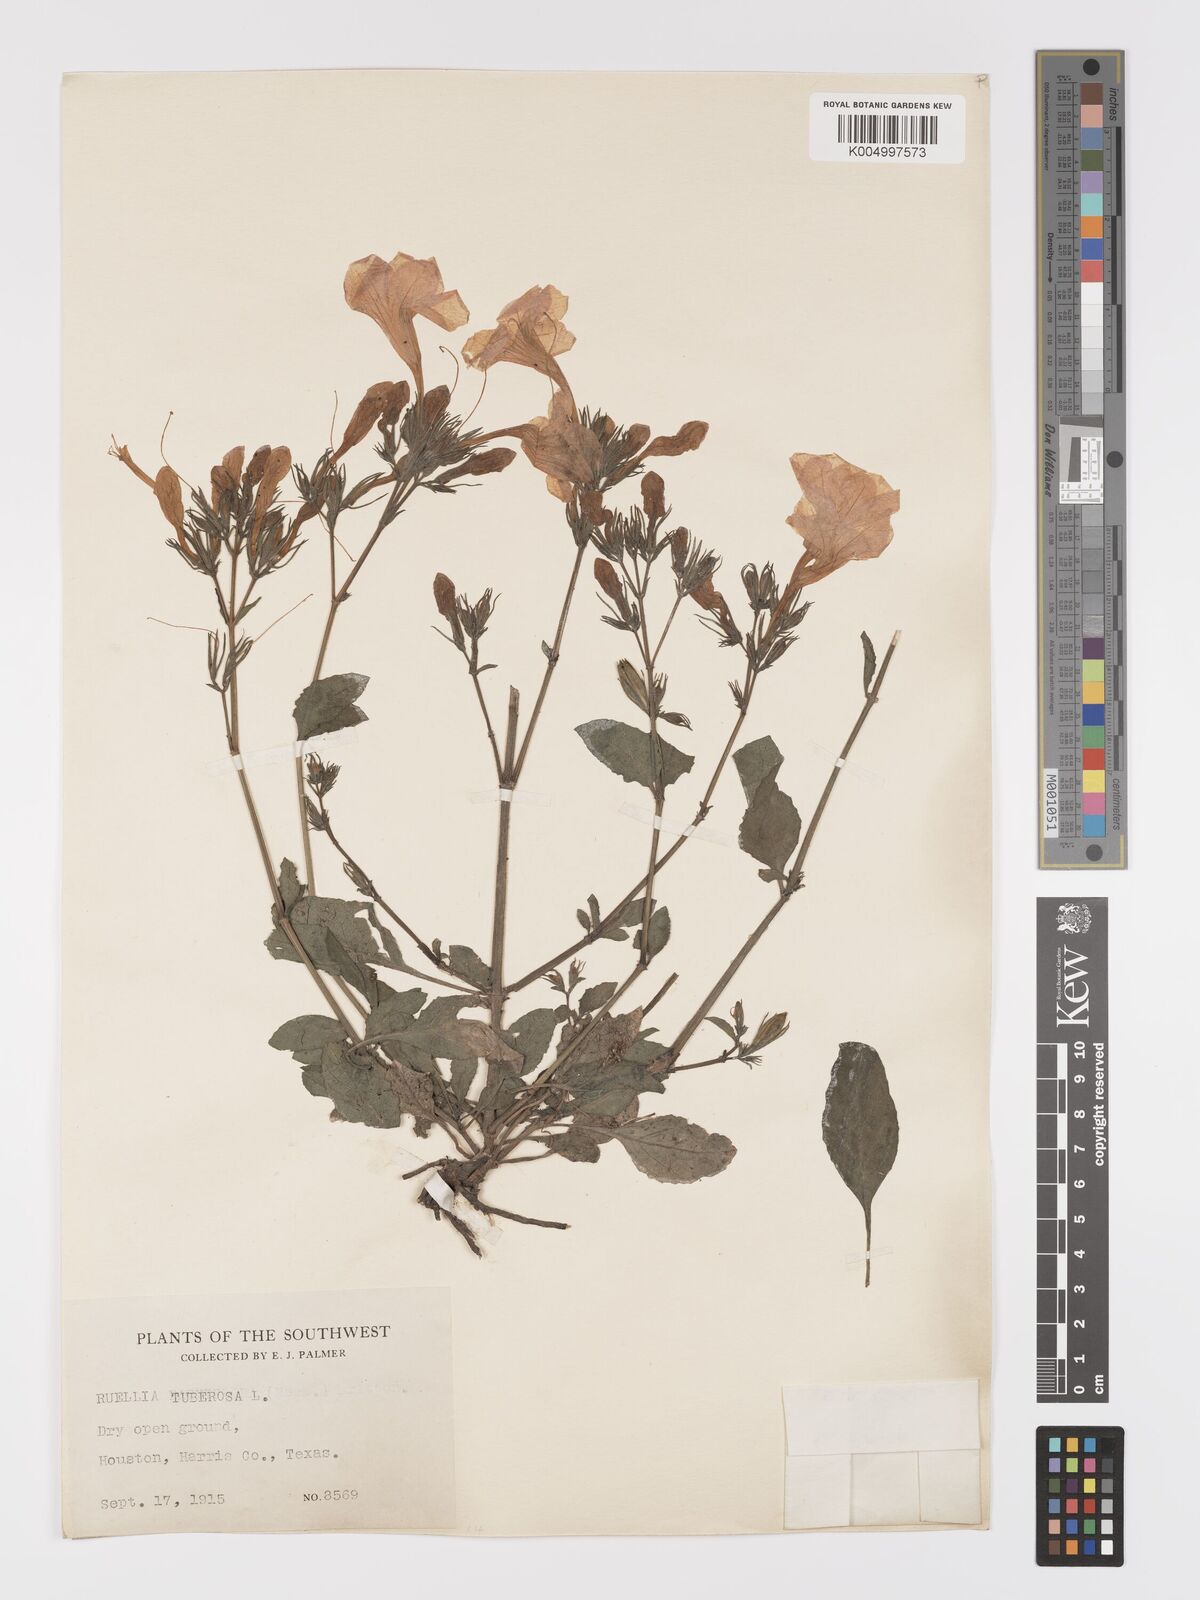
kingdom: Plantae
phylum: Tracheophyta
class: Magnoliopsida
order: Lamiales
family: Acanthaceae
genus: Ruellia
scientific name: Ruellia tuberosa
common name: Devil's bit
